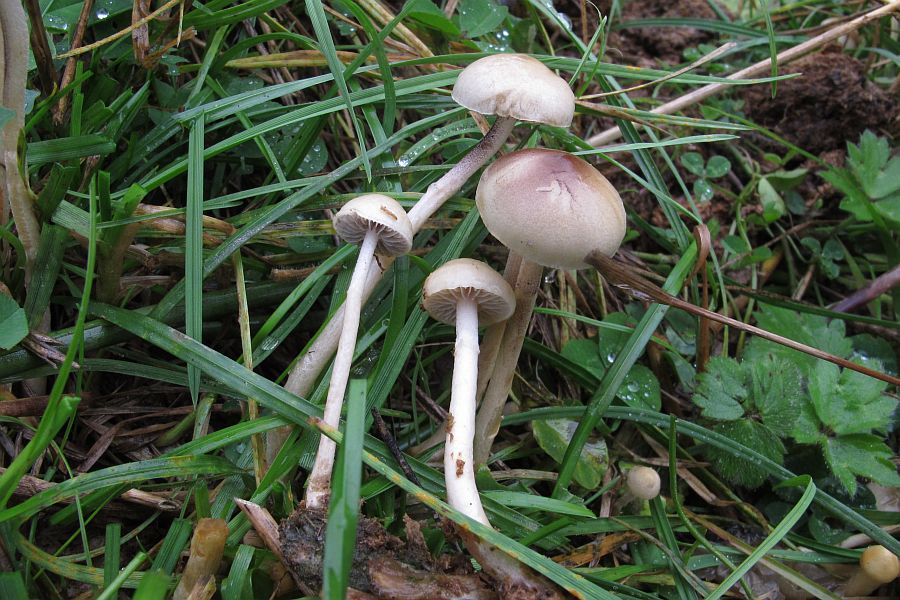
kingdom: Fungi
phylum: Basidiomycota
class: Agaricomycetes
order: Agaricales
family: Strophariaceae
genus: Protostropharia
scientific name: Protostropharia semiglobata
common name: halvkugleformet bredblad
